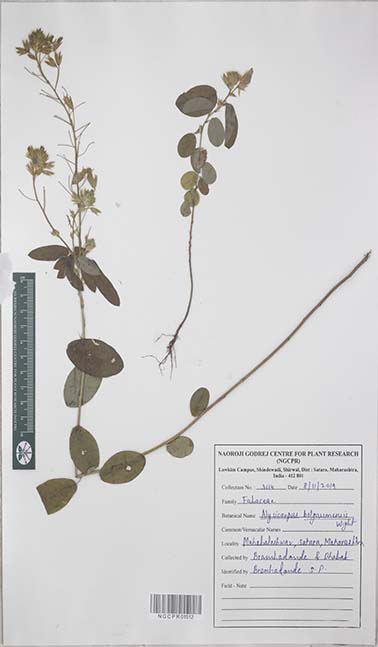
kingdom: Plantae
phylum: Tracheophyta
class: Magnoliopsida
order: Fabales
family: Fabaceae
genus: Alysicarpus
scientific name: Alysicarpus belgaumensis
